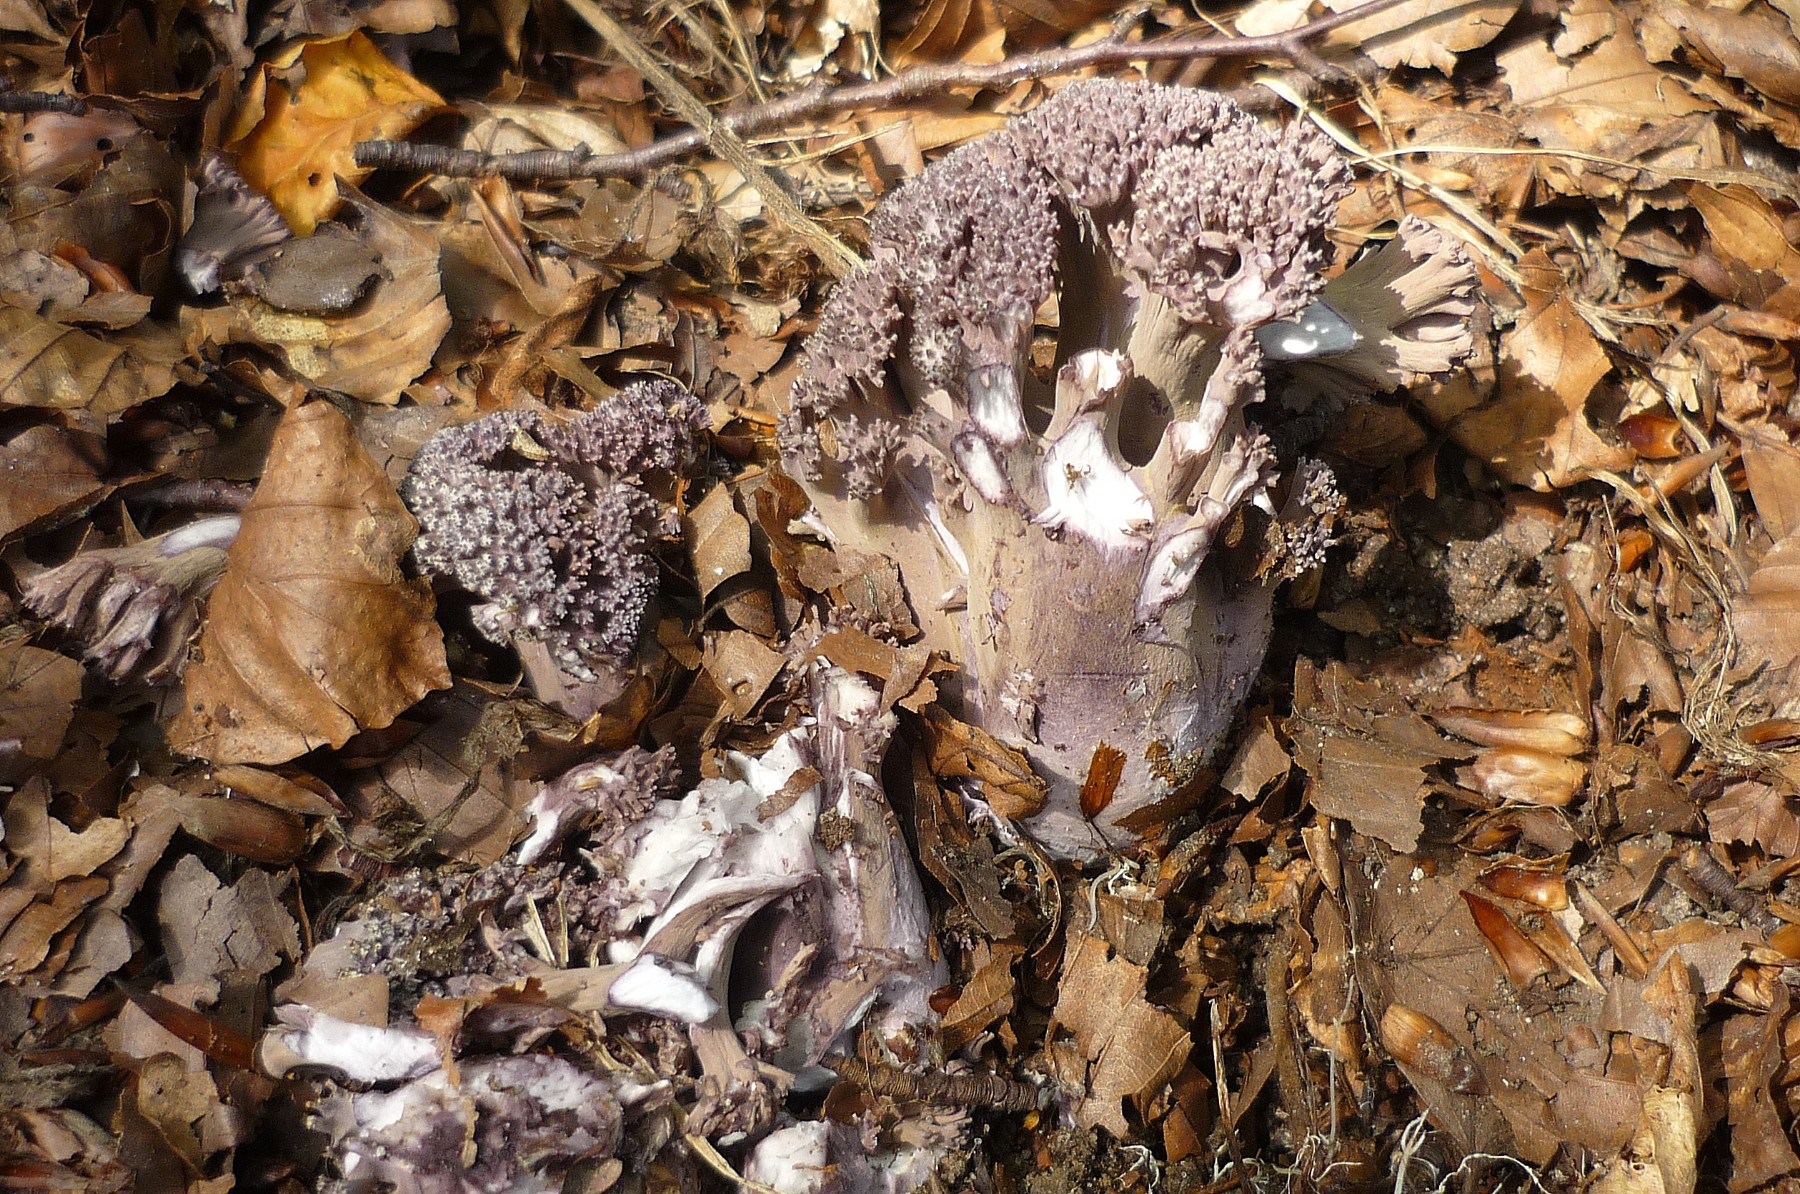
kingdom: Fungi
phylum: Basidiomycota
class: Agaricomycetes
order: Gomphales
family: Gomphaceae
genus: Ramaria
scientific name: Ramaria fumigata
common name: violet koralsvamp
